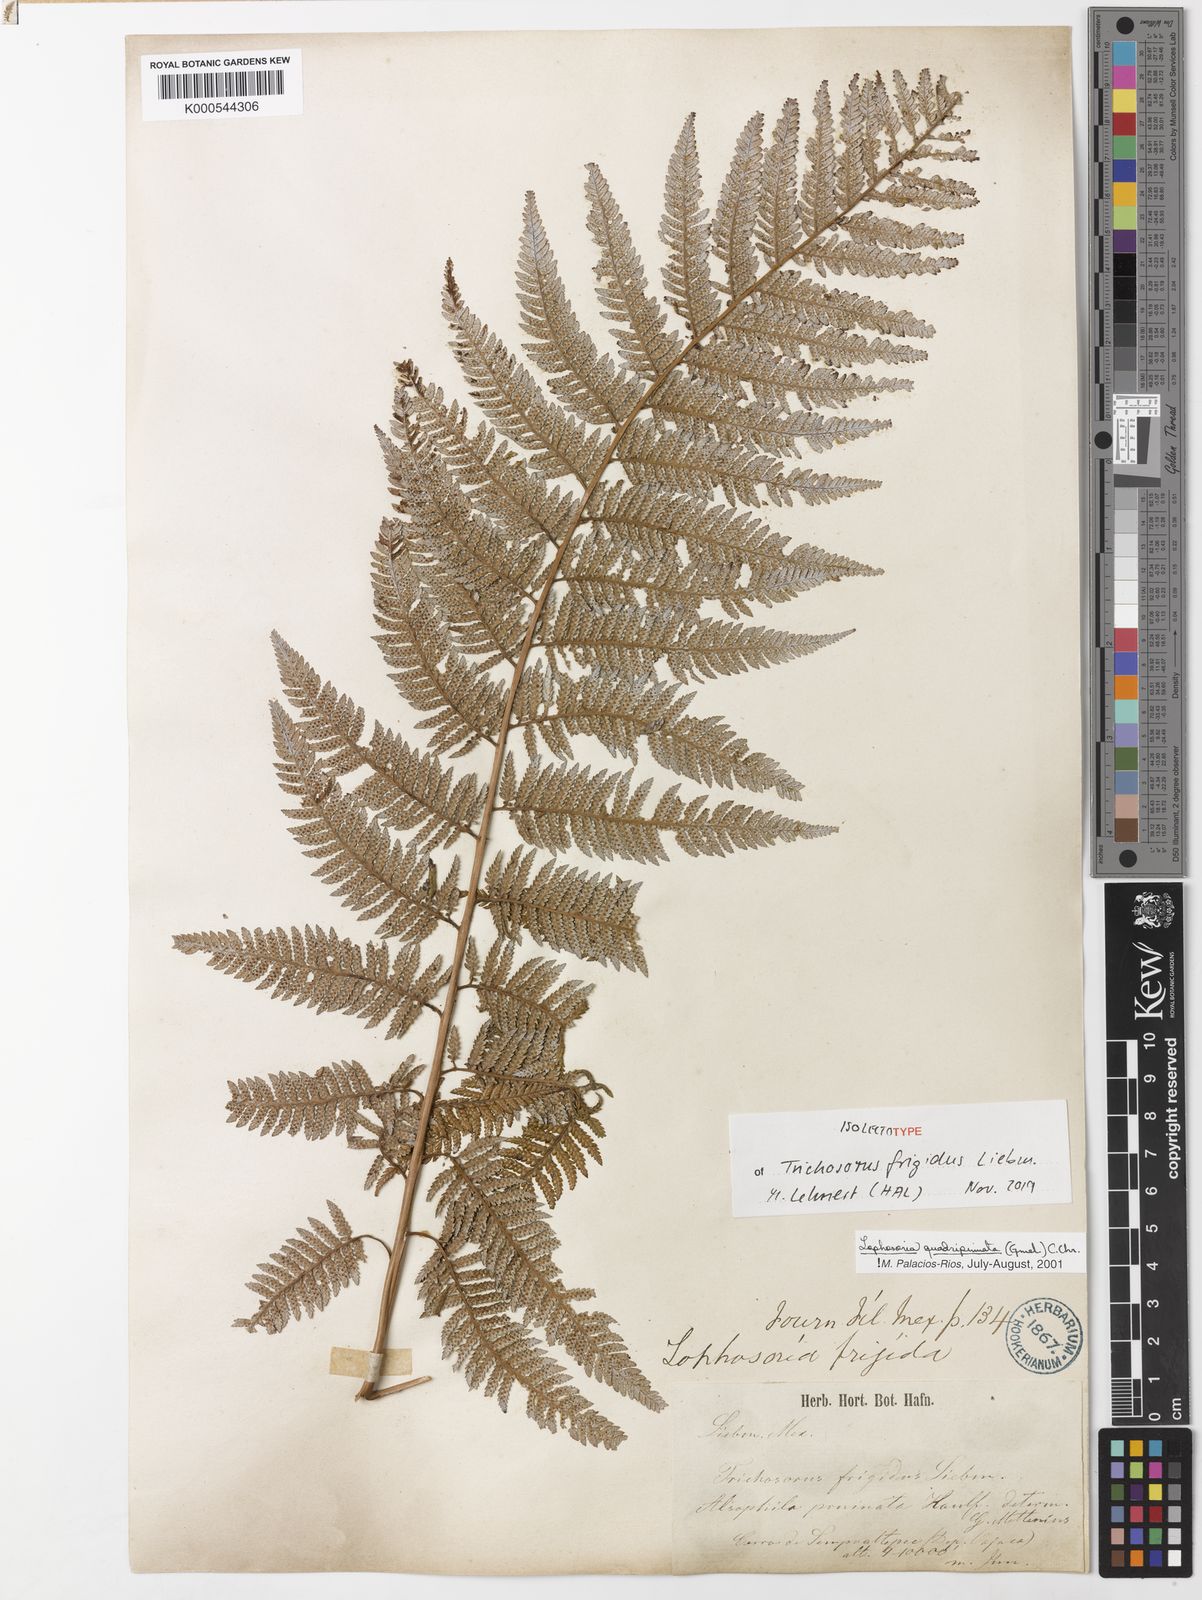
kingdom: Plantae
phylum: Tracheophyta
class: Polypodiopsida
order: Cyatheales
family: Dicksoniaceae
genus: Lophosoria
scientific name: Lophosoria quadripinnata
